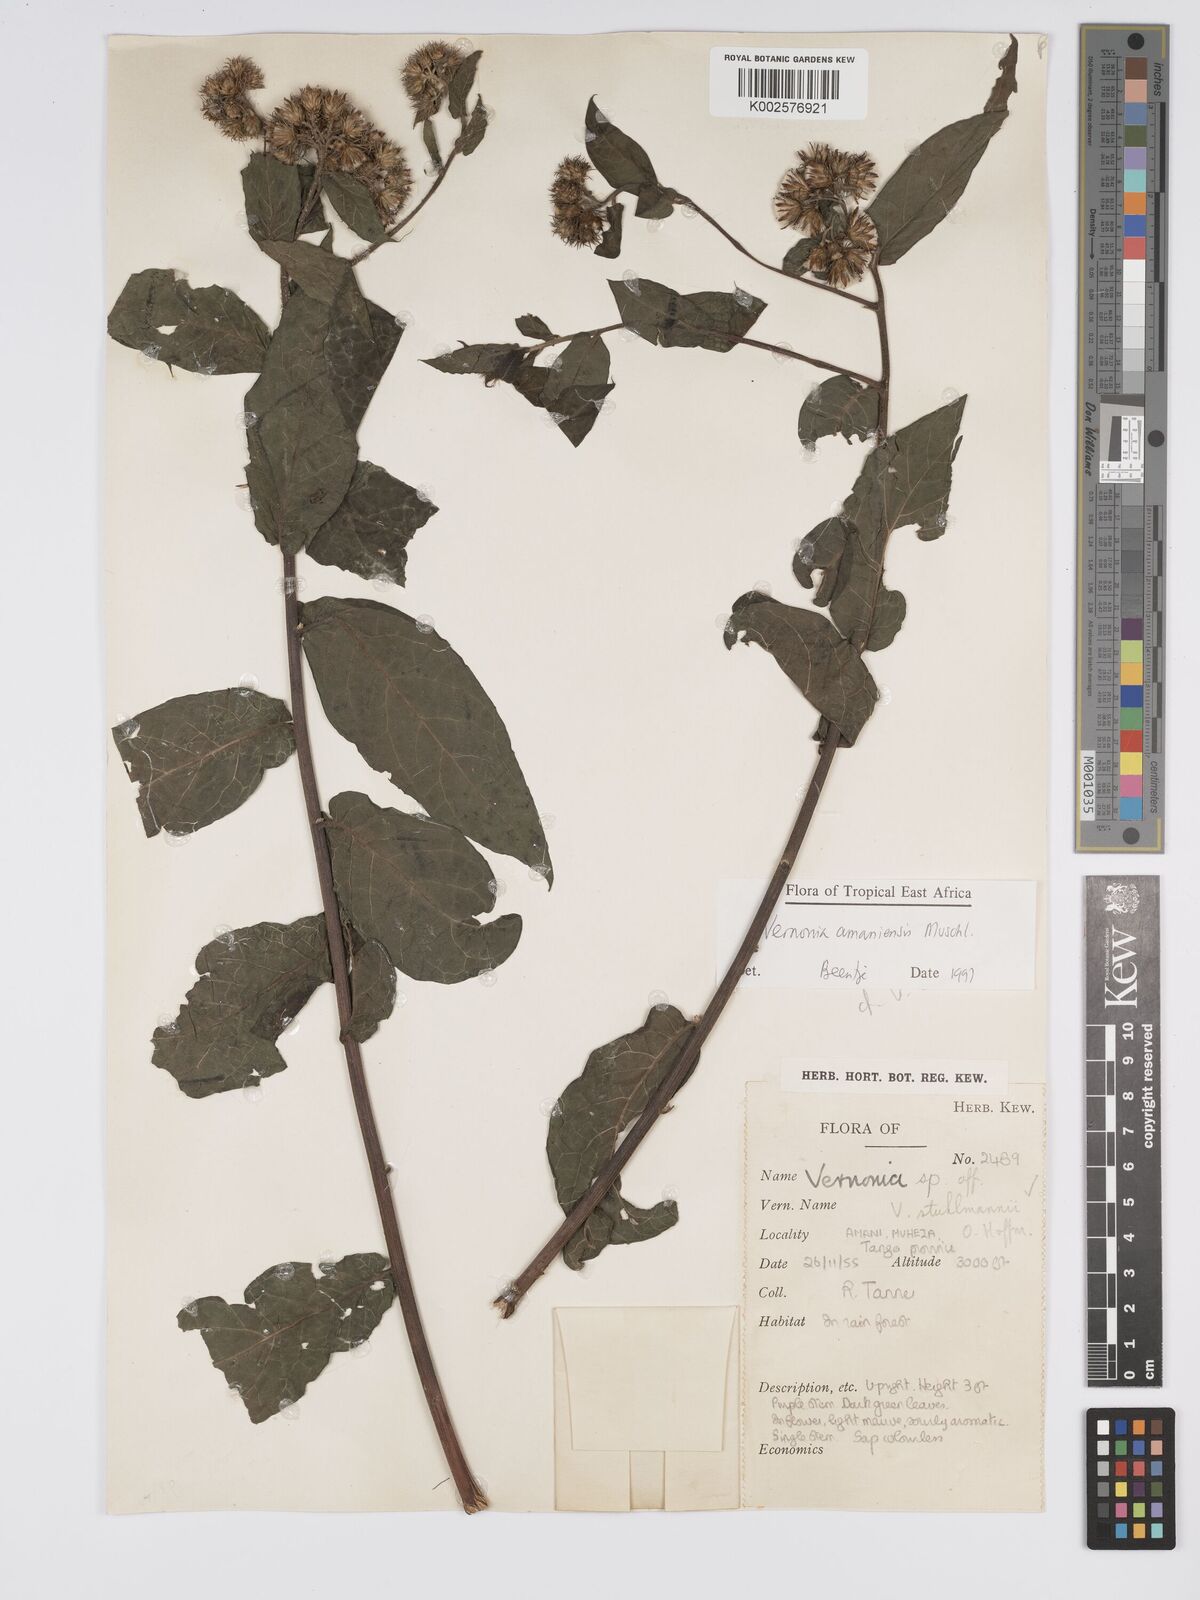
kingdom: Plantae
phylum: Tracheophyta
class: Magnoliopsida
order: Asterales
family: Asteraceae
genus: Jeffreycia
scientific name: Jeffreycia amaniensis
